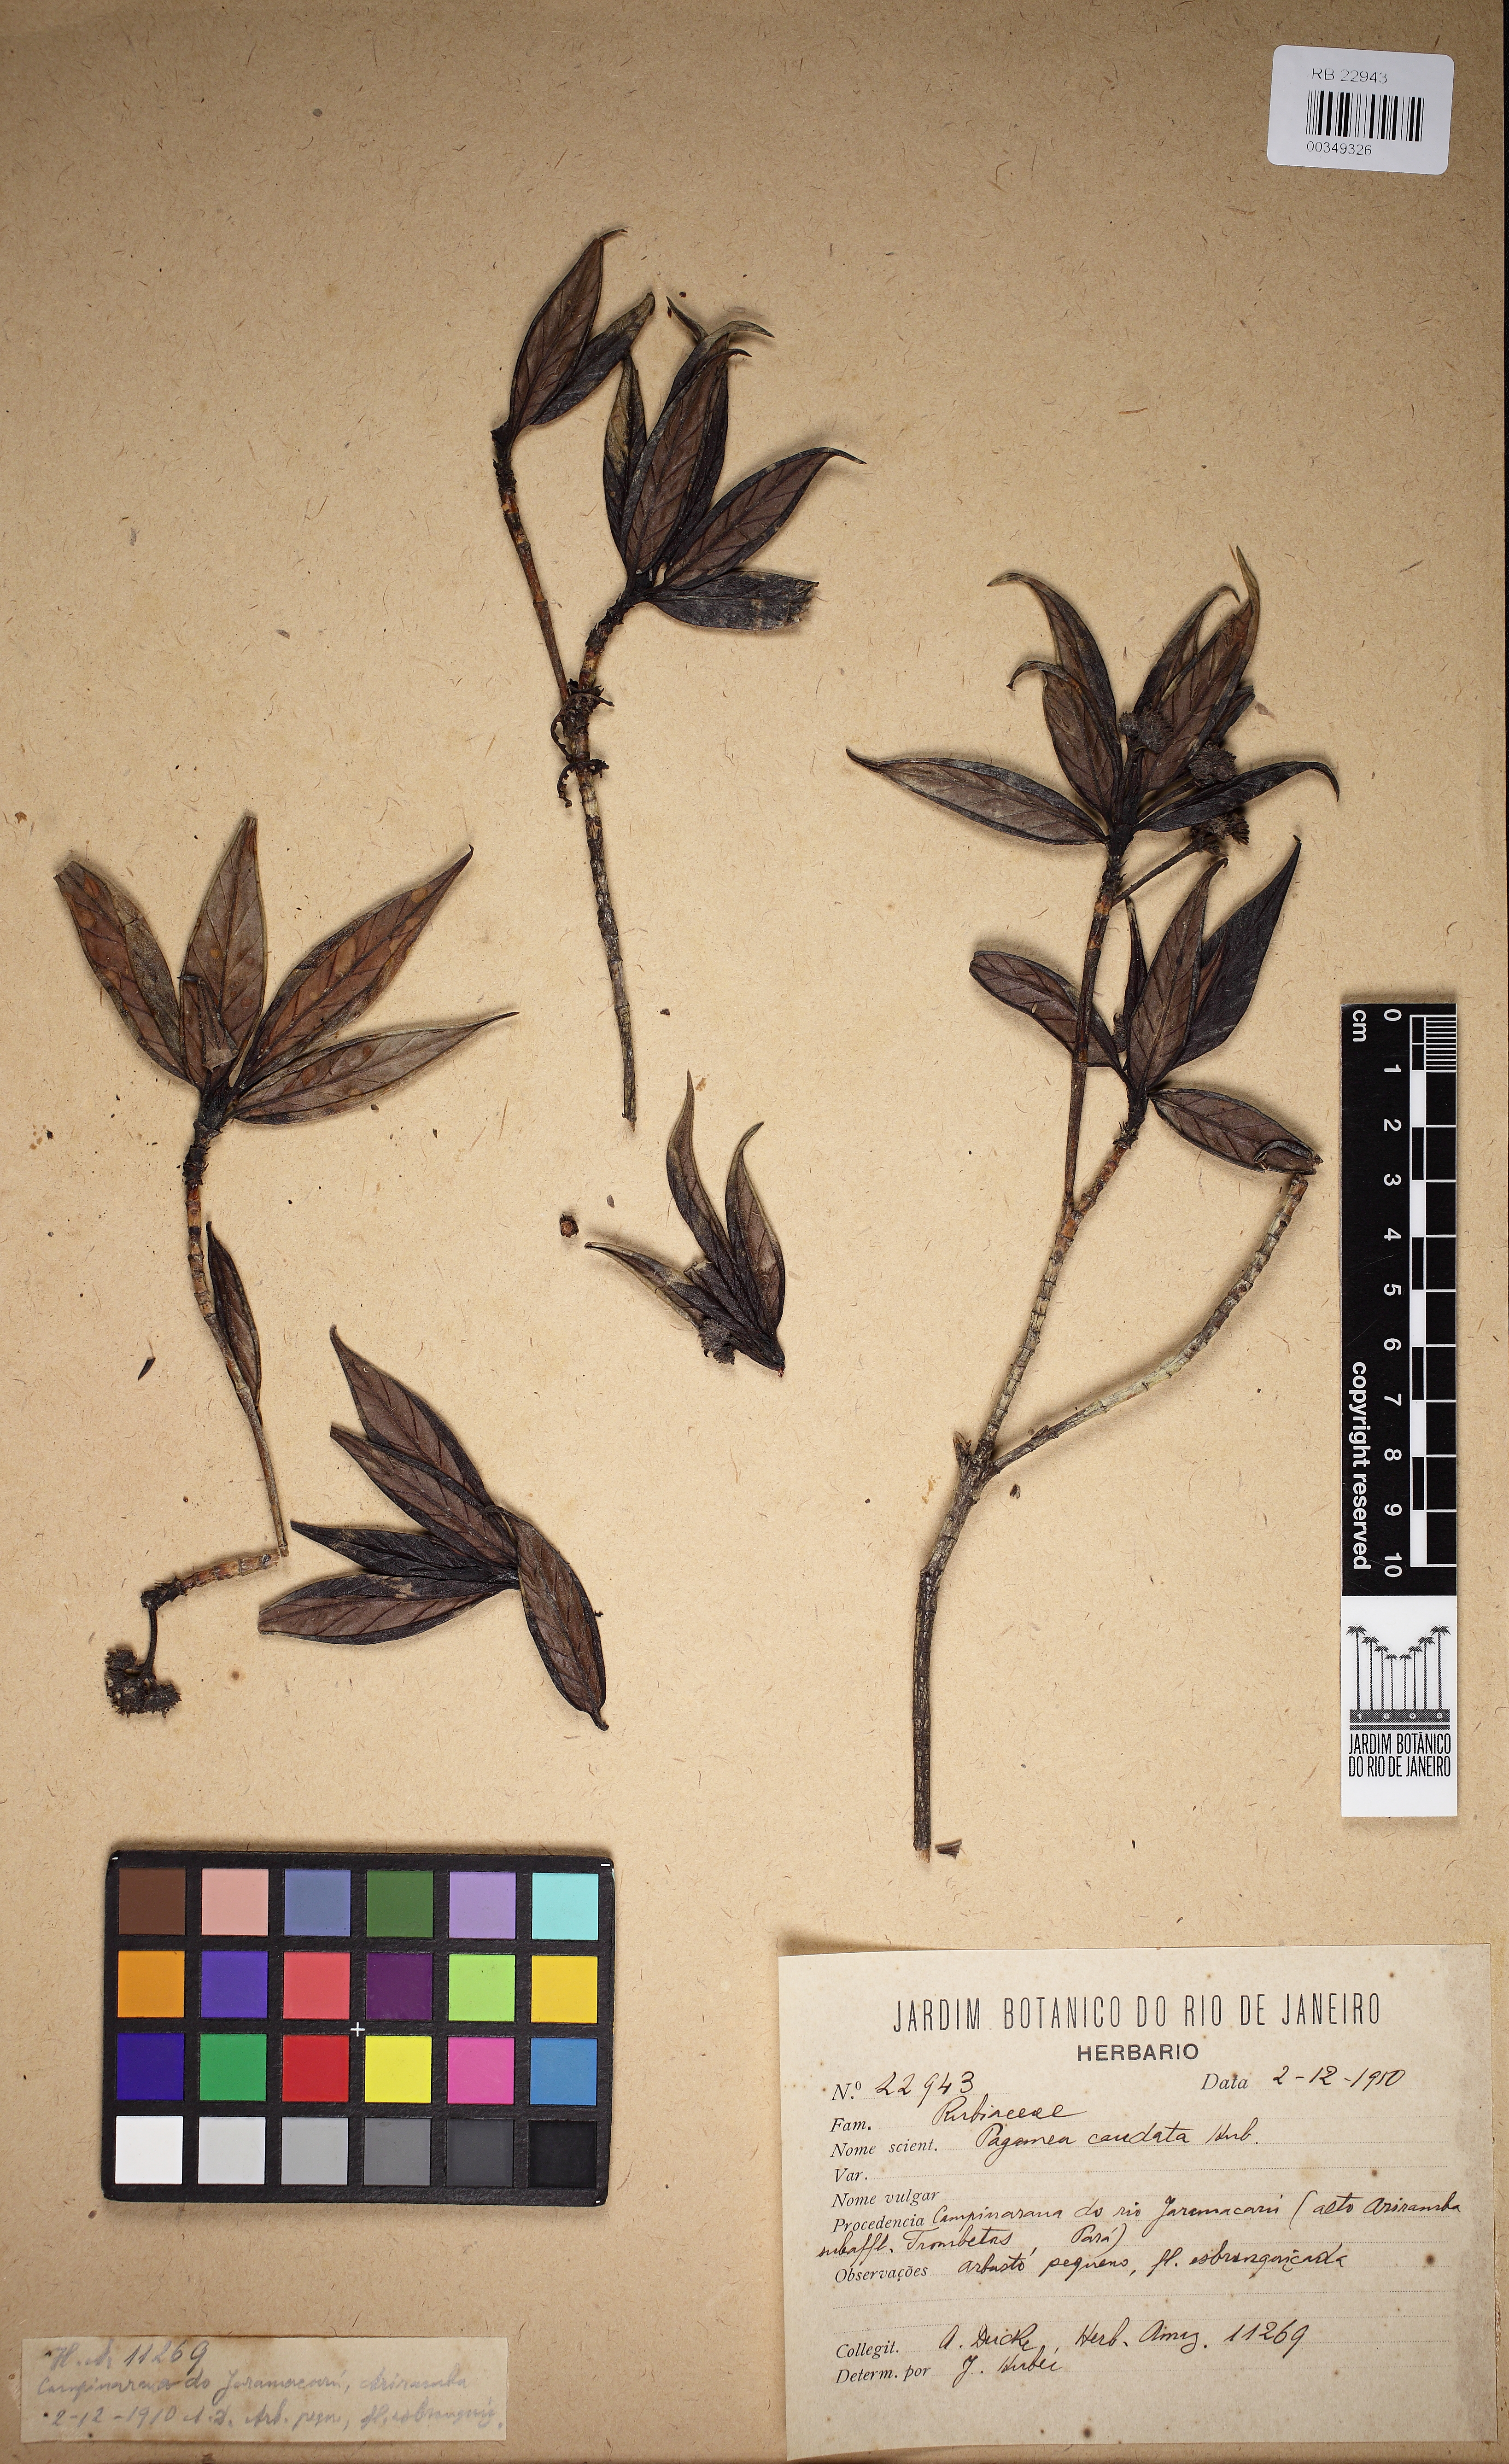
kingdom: Plantae
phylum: Tracheophyta
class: Magnoliopsida
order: Gentianales
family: Rubiaceae
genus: Pagamea
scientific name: Pagamea capitata
